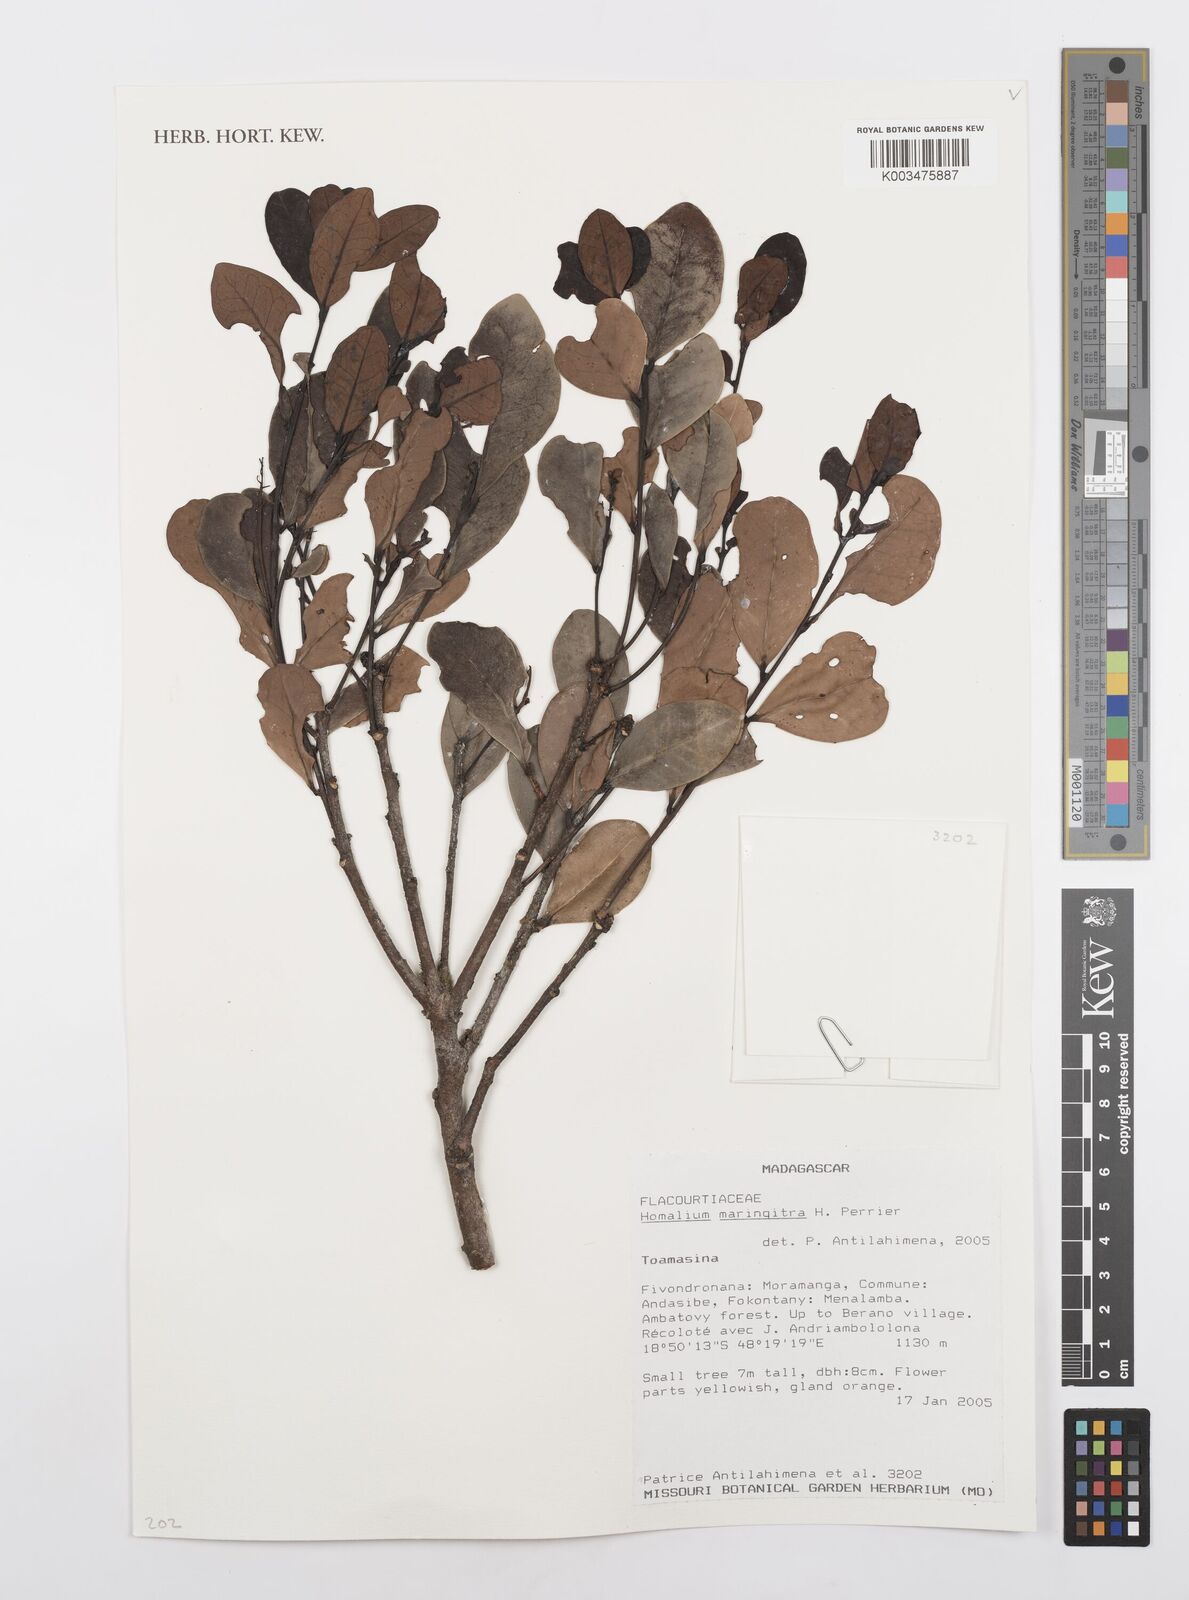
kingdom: Plantae
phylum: Tracheophyta
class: Magnoliopsida
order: Malpighiales
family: Salicaceae
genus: Homalium
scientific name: Homalium maringitra
